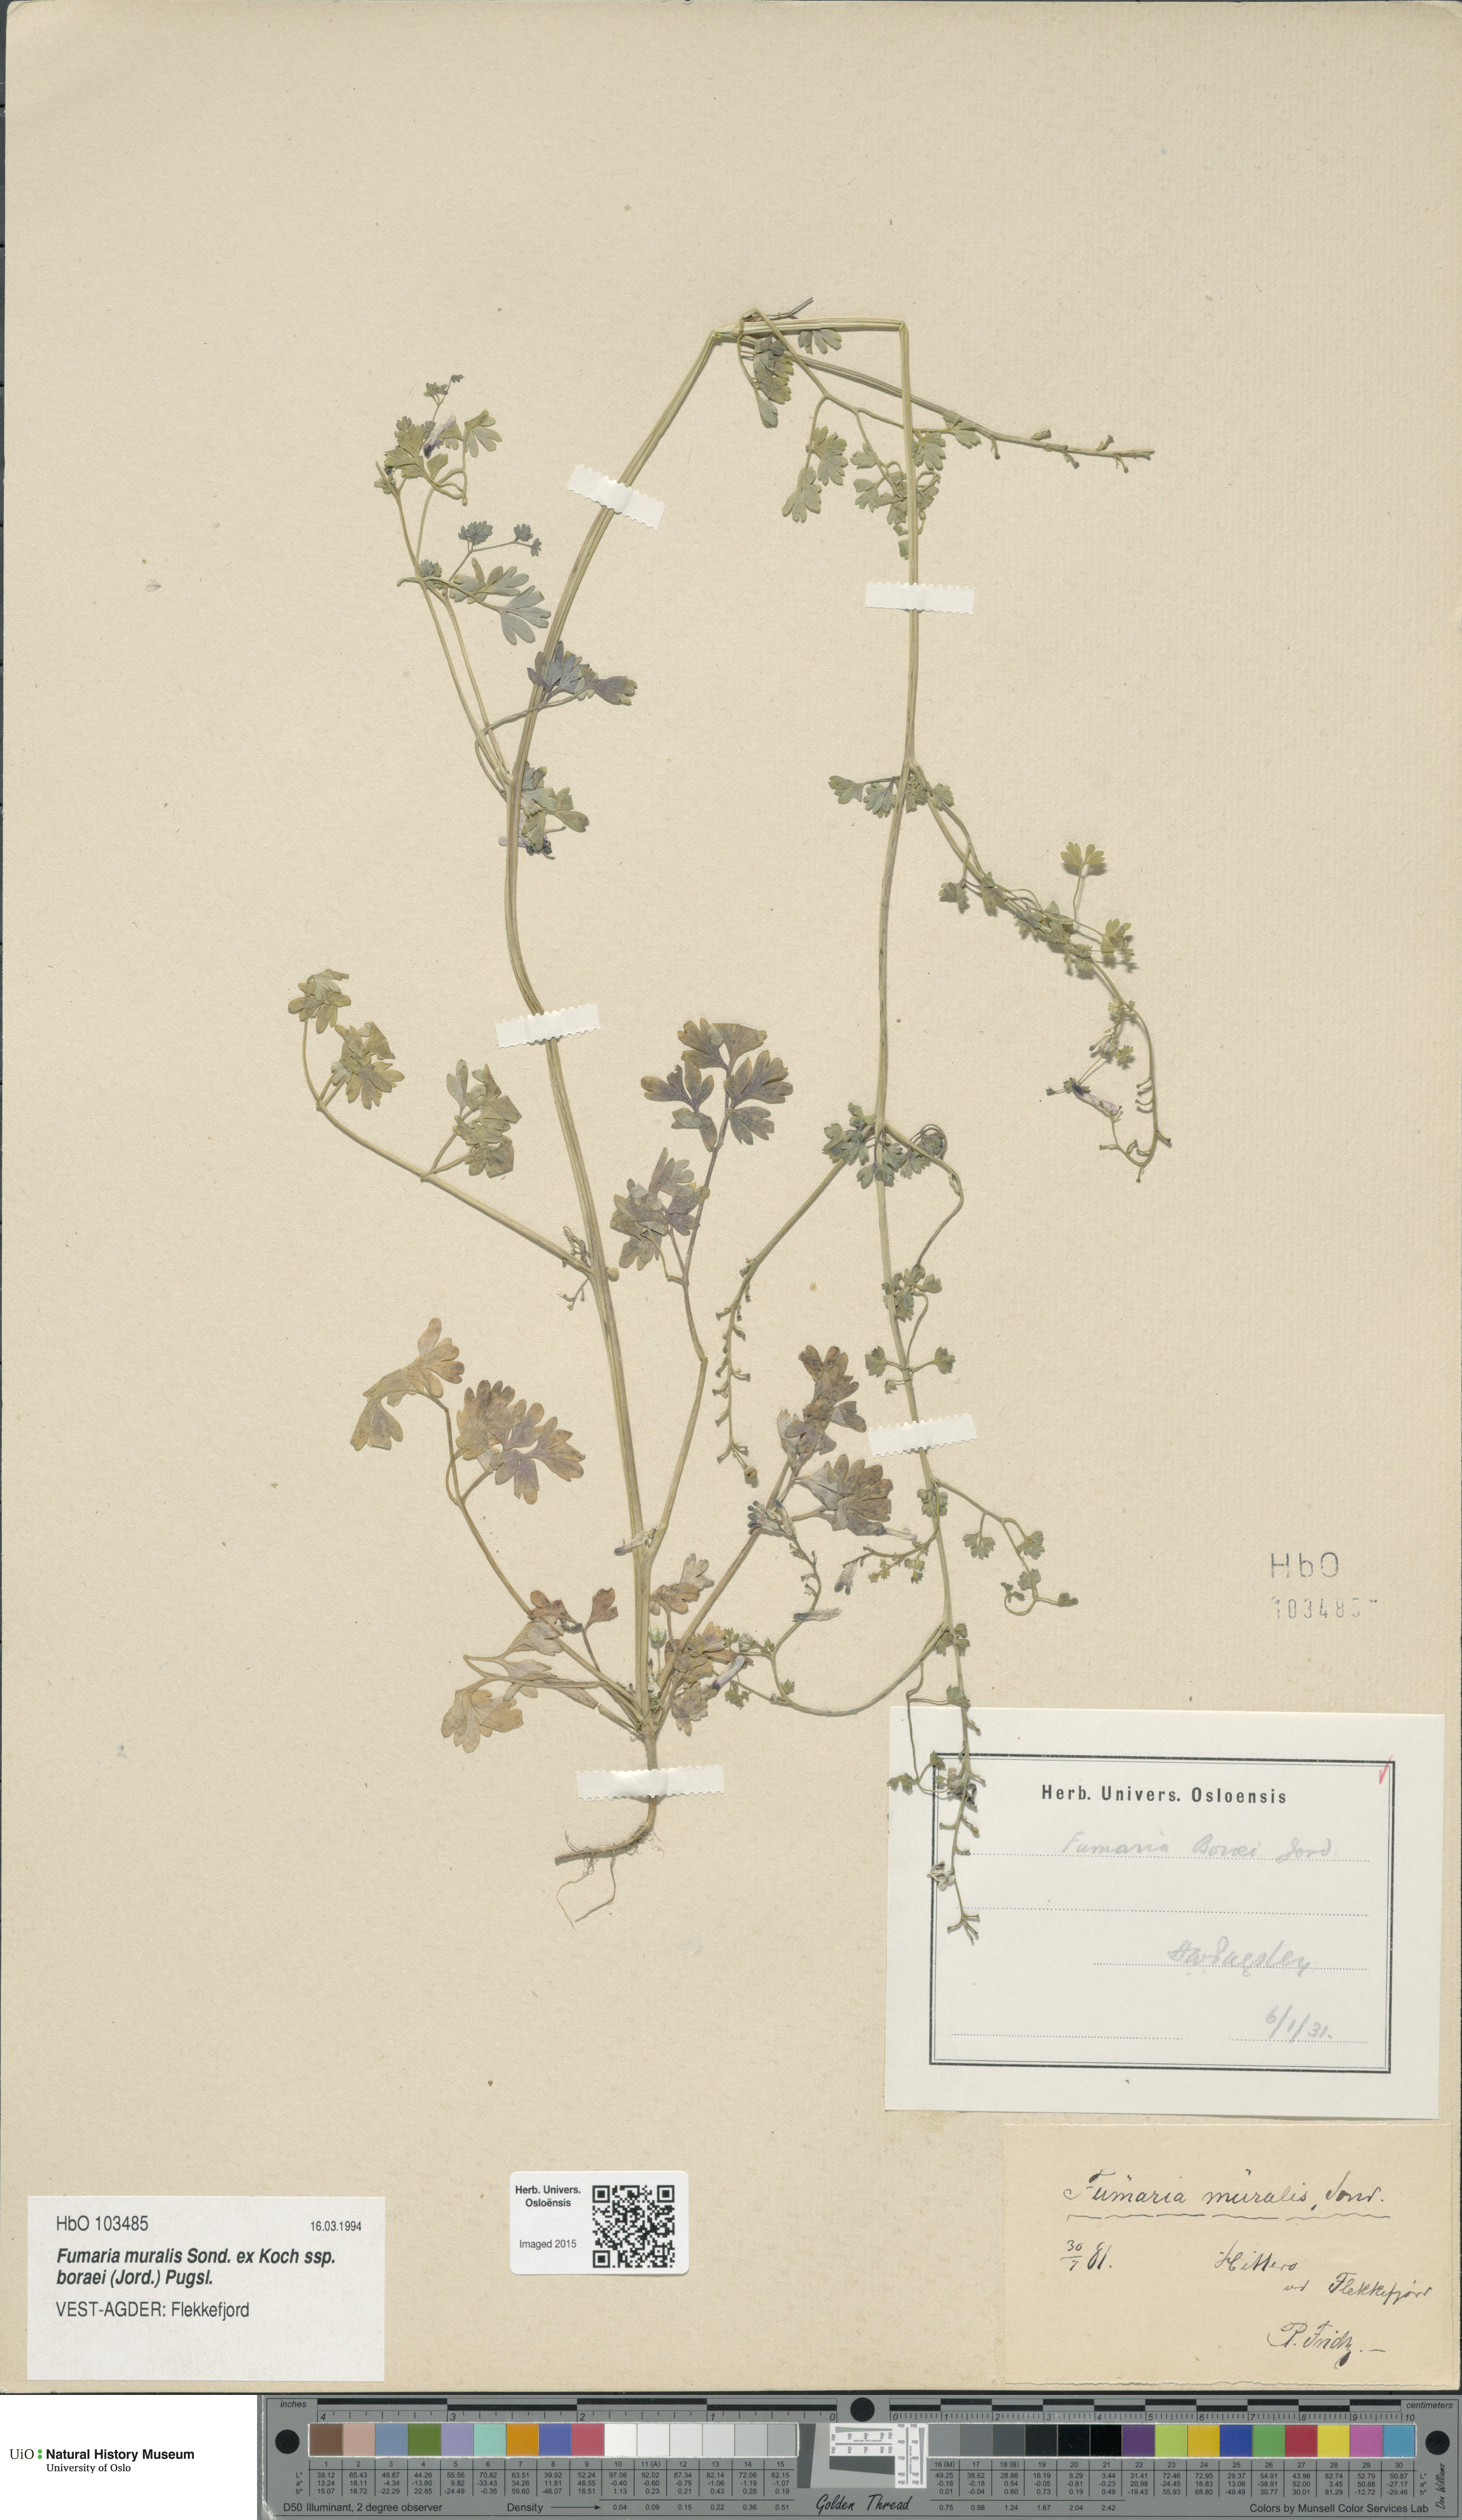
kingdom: Plantae
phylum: Tracheophyta
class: Magnoliopsida
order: Ranunculales
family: Papaveraceae
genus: Fumaria
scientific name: Fumaria muralis
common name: Common ramping-fumitory
